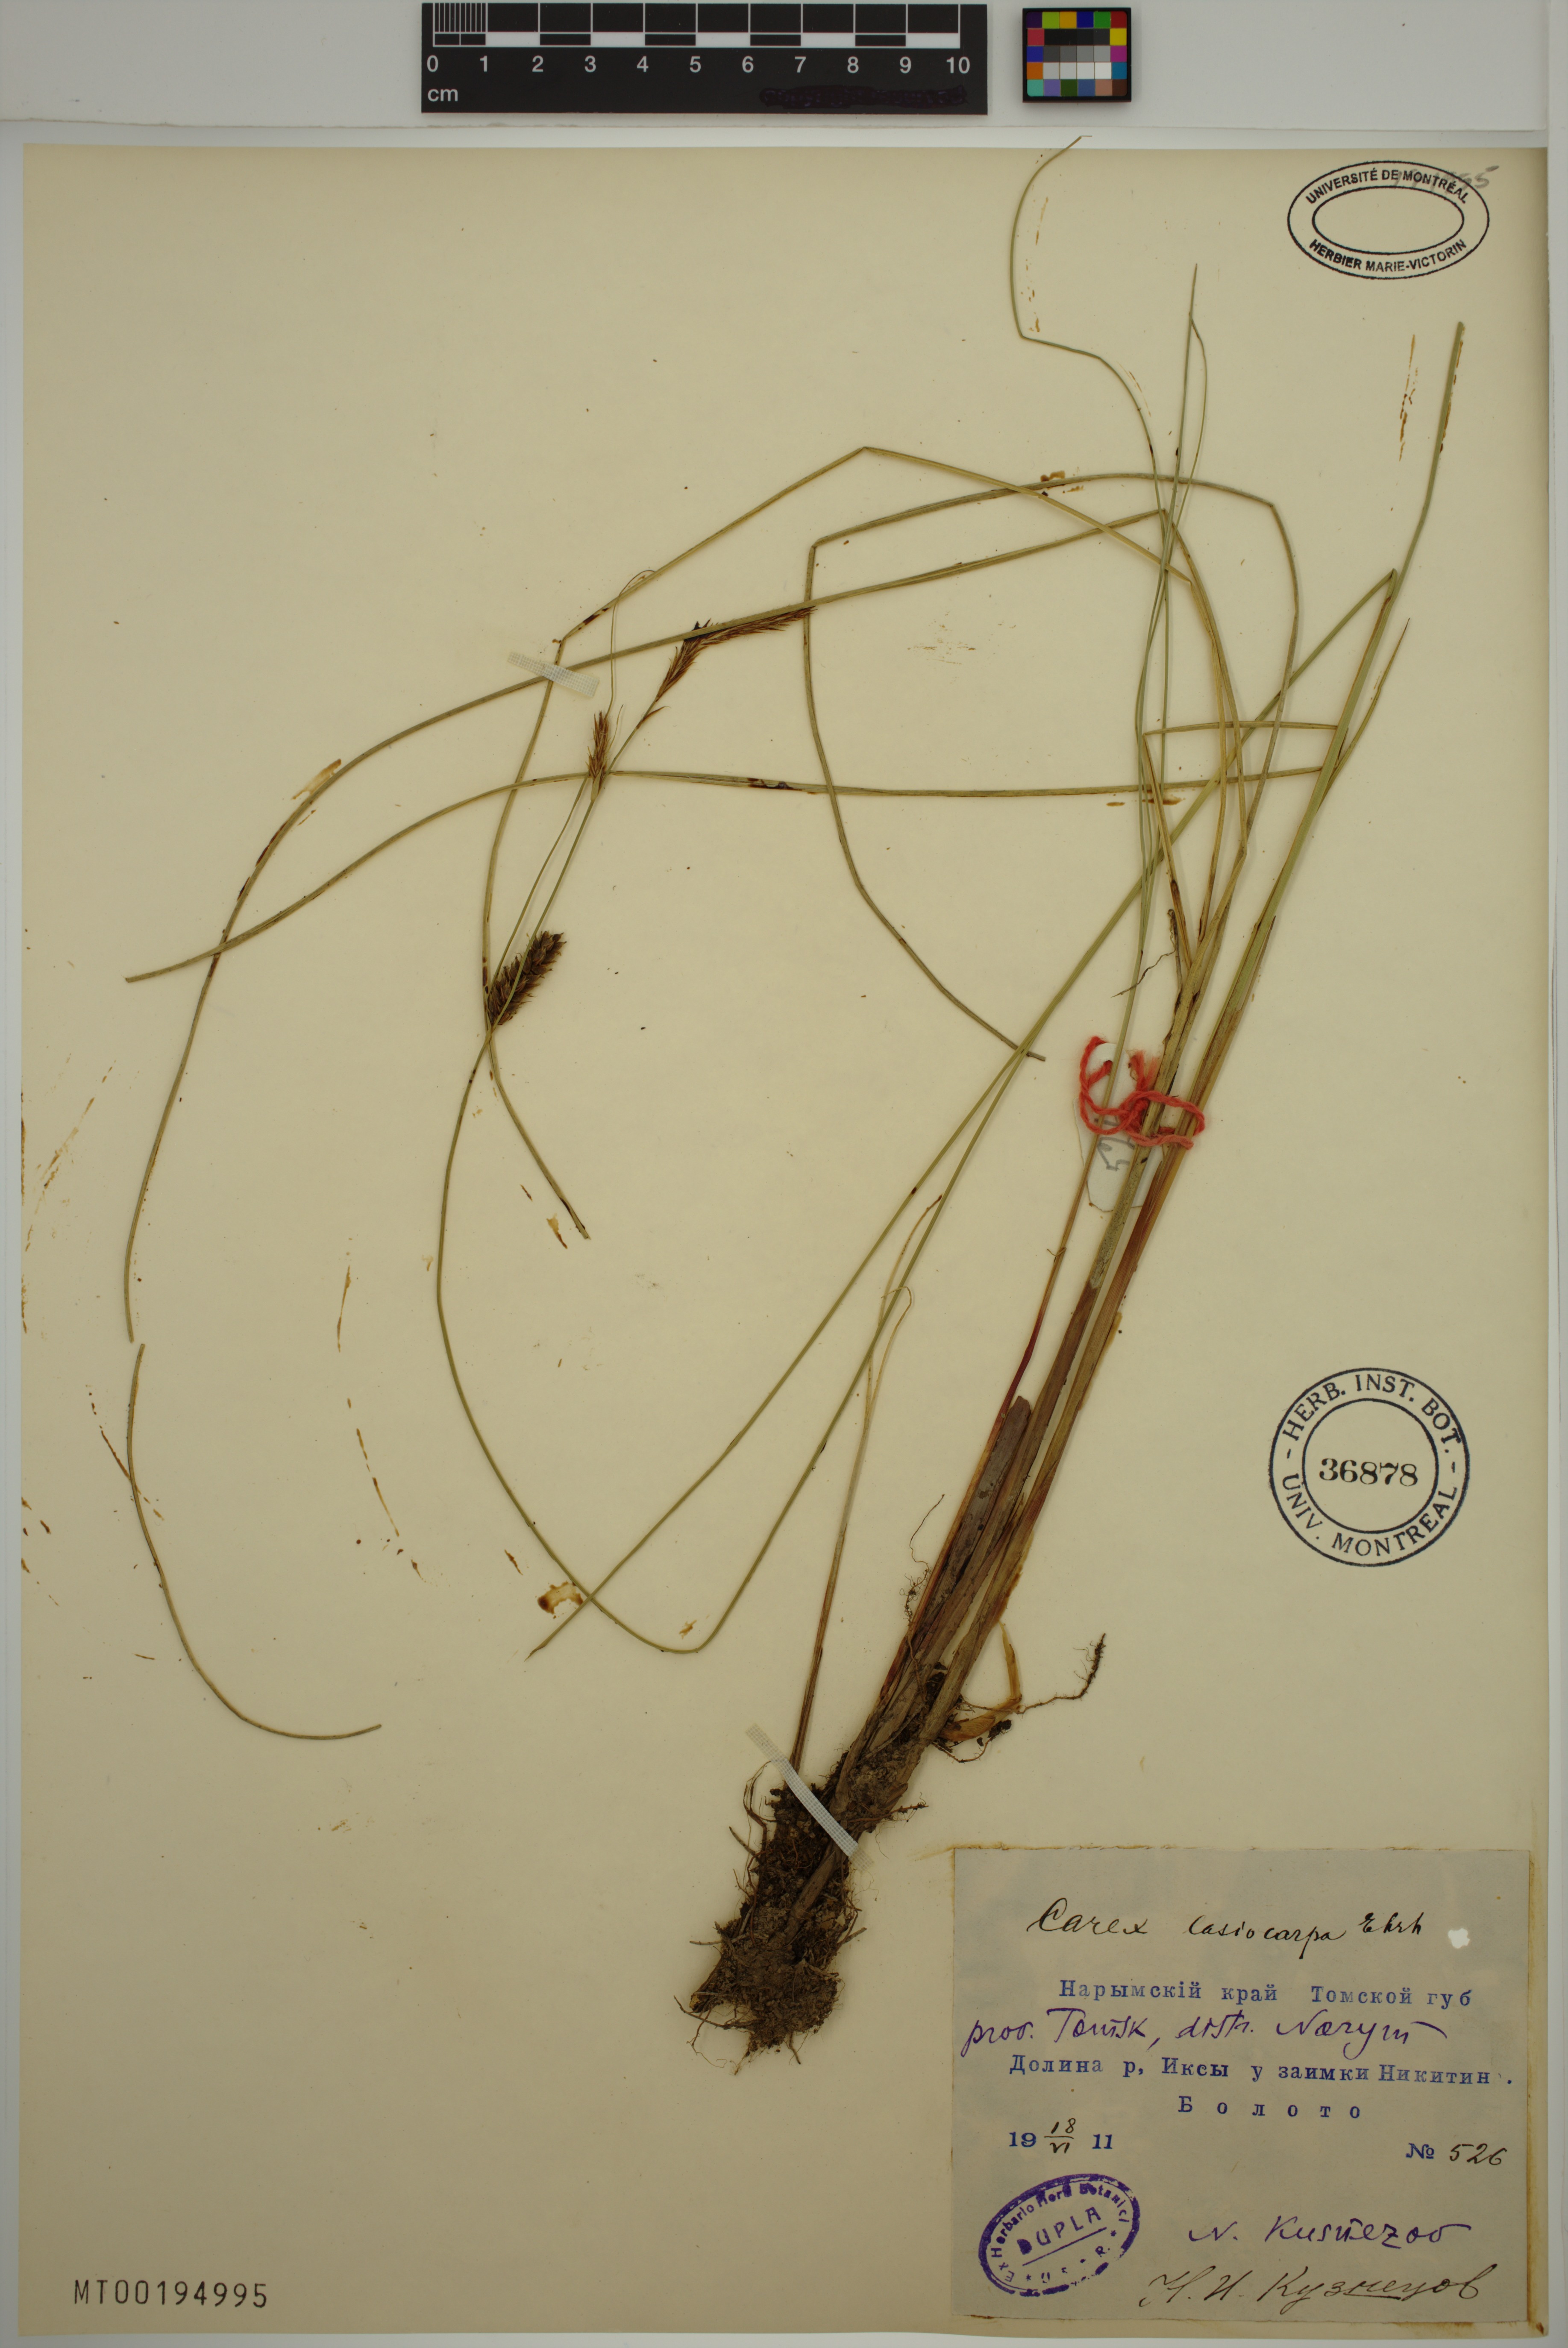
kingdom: Plantae
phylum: Tracheophyta
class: Liliopsida
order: Poales
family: Cyperaceae
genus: Carex
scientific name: Carex lasiocarpa
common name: Slender sedge
